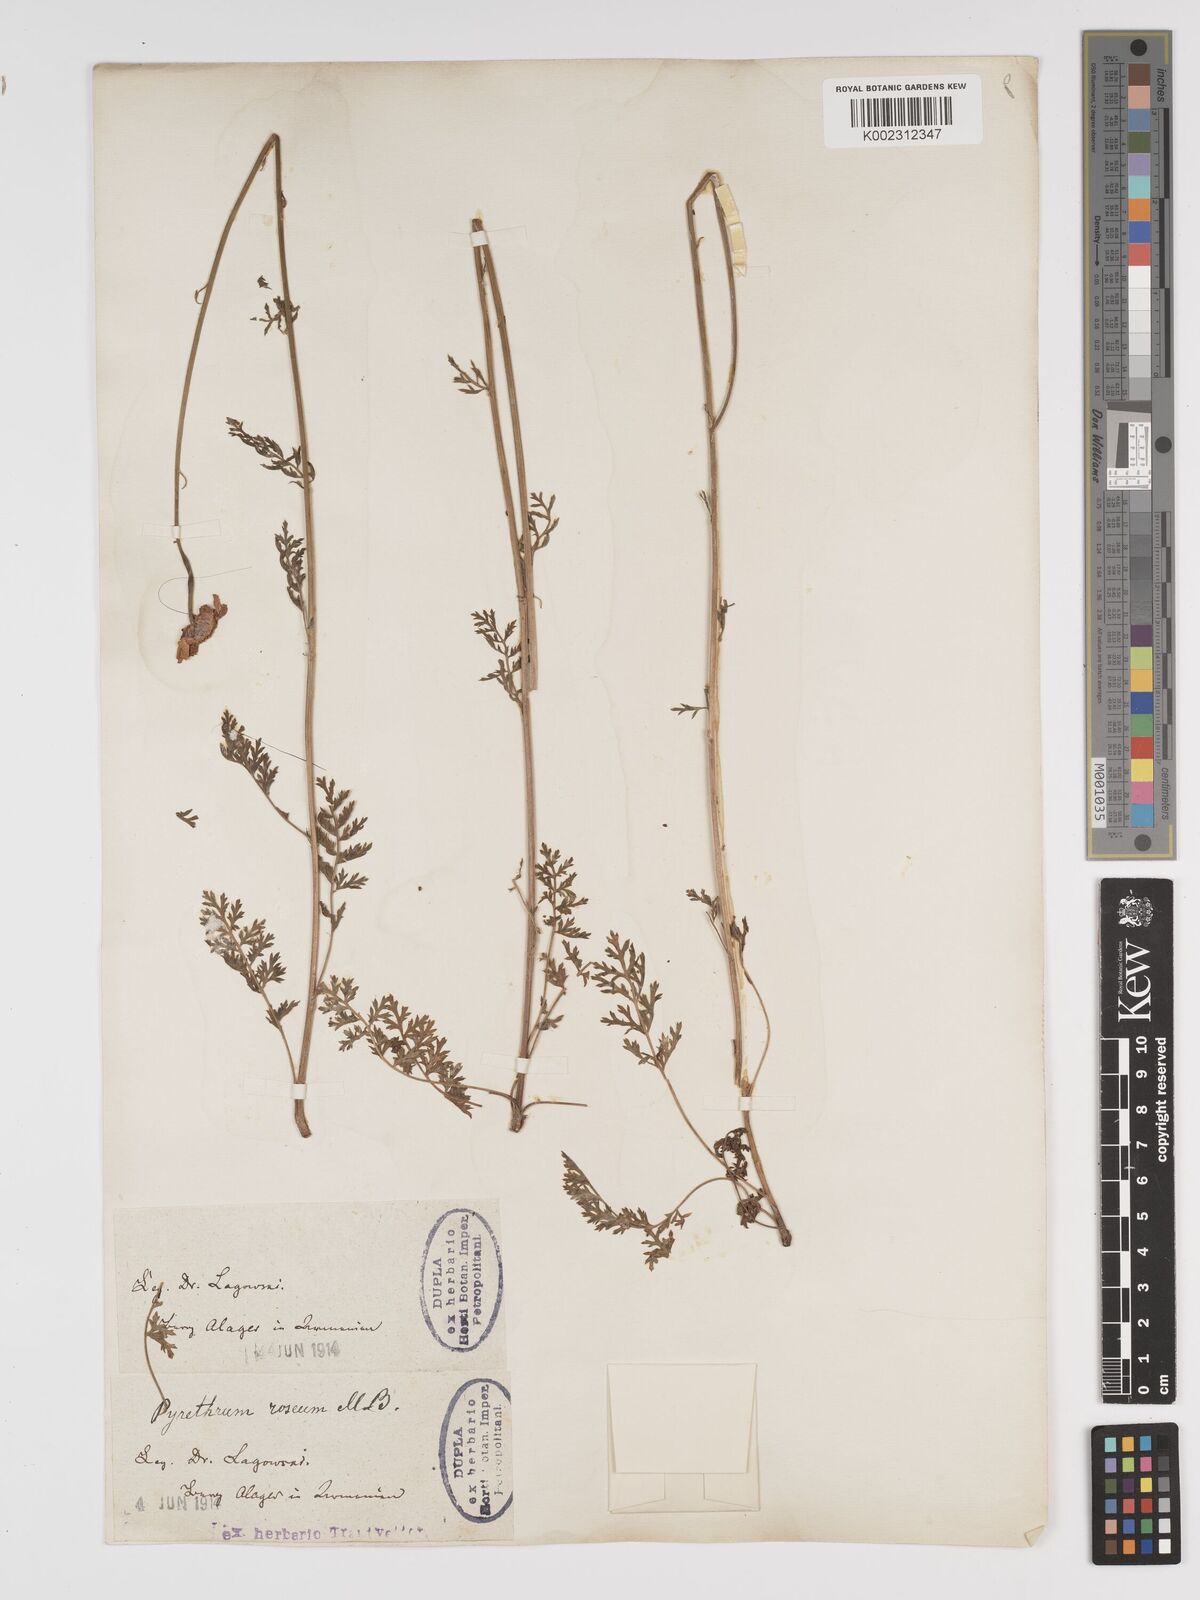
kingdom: Plantae
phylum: Tracheophyta
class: Magnoliopsida
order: Asterales
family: Asteraceae
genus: Tanacetum
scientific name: Tanacetum coccineum
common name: Pyrethum daisy
